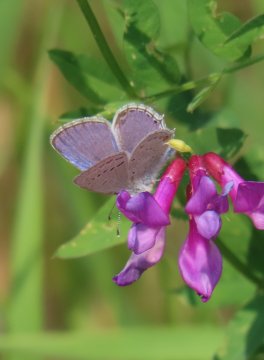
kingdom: Animalia
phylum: Arthropoda
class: Insecta
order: Lepidoptera
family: Lycaenidae
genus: Elkalyce
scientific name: Elkalyce amyntula
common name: Western Tailed-Blue
